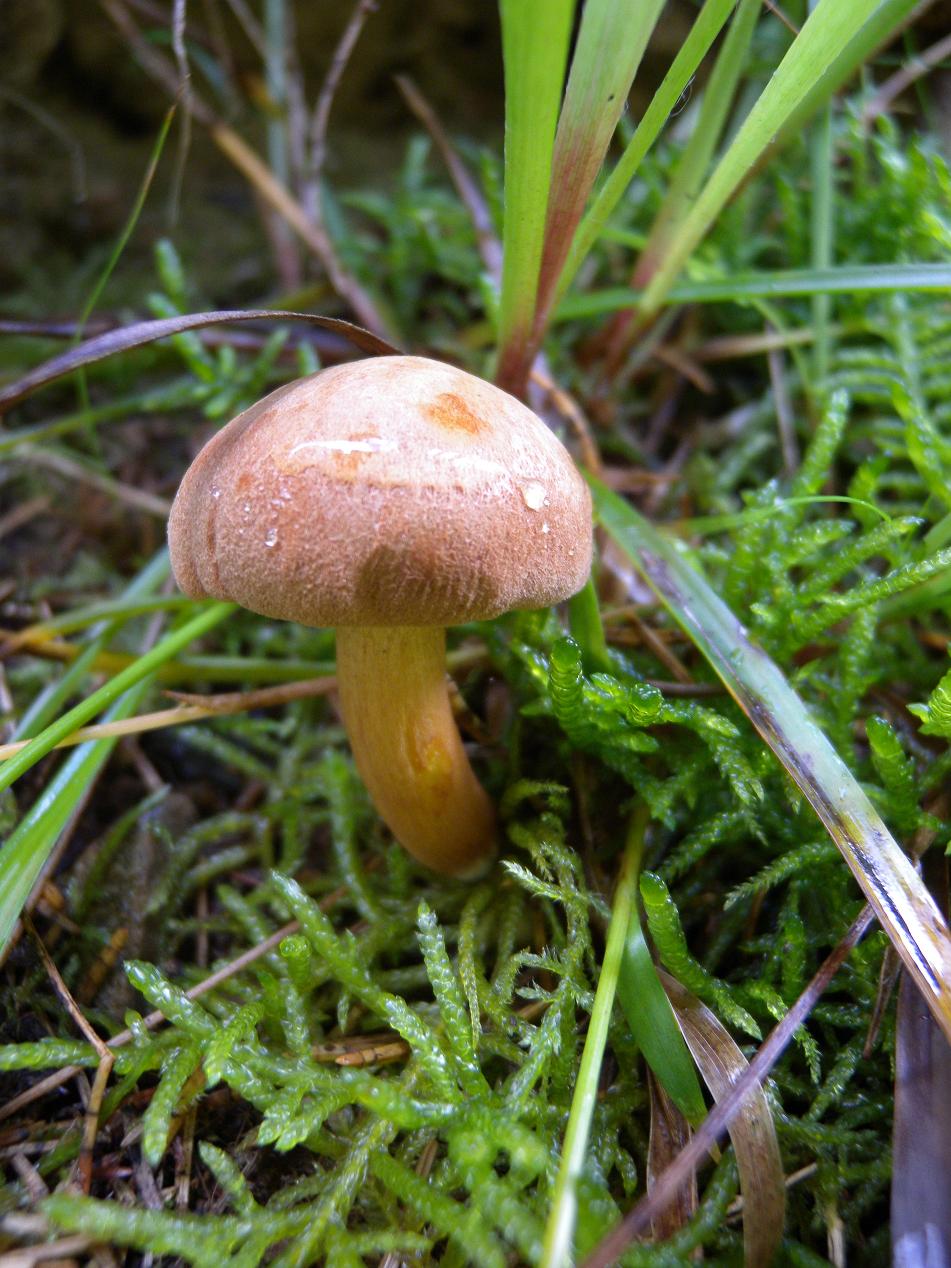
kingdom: Fungi
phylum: Basidiomycota
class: Agaricomycetes
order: Boletales
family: Boletaceae
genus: Chalciporus
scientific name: Chalciporus piperatus
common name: peberrørhat
